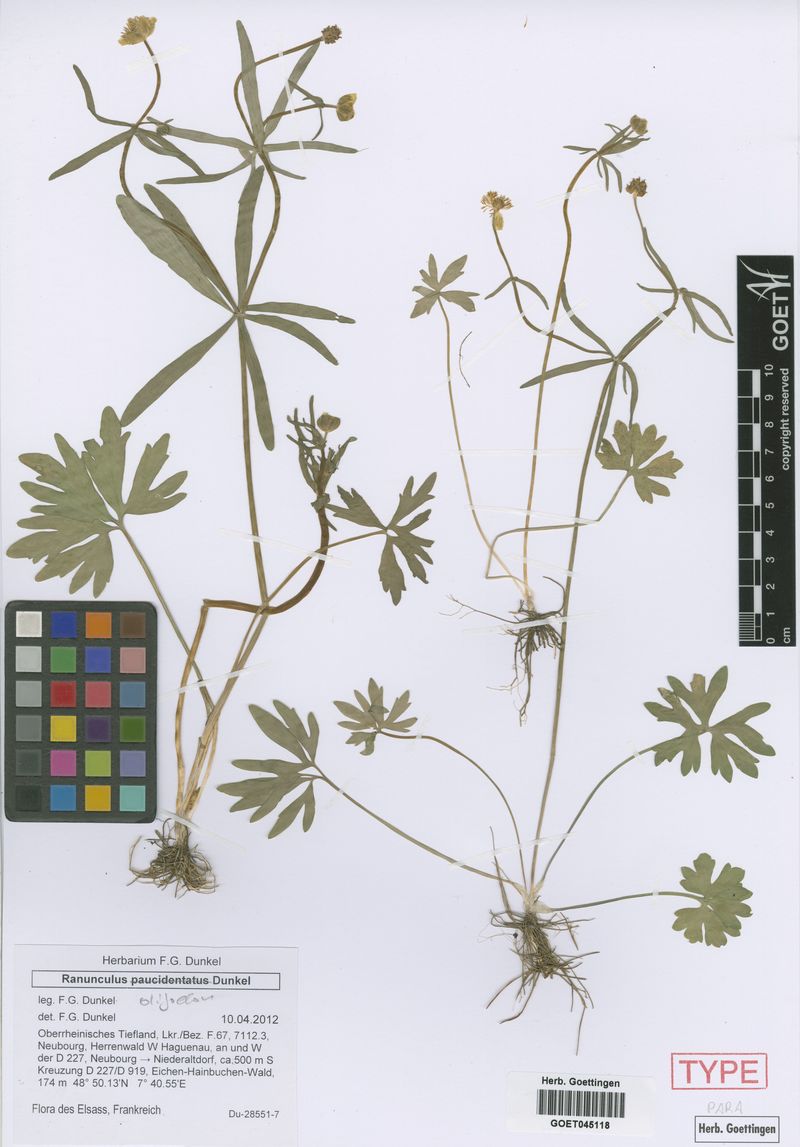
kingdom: Plantae
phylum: Tracheophyta
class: Magnoliopsida
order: Ranunculales
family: Ranunculaceae
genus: Ranunculus
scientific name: Ranunculus oligodon
